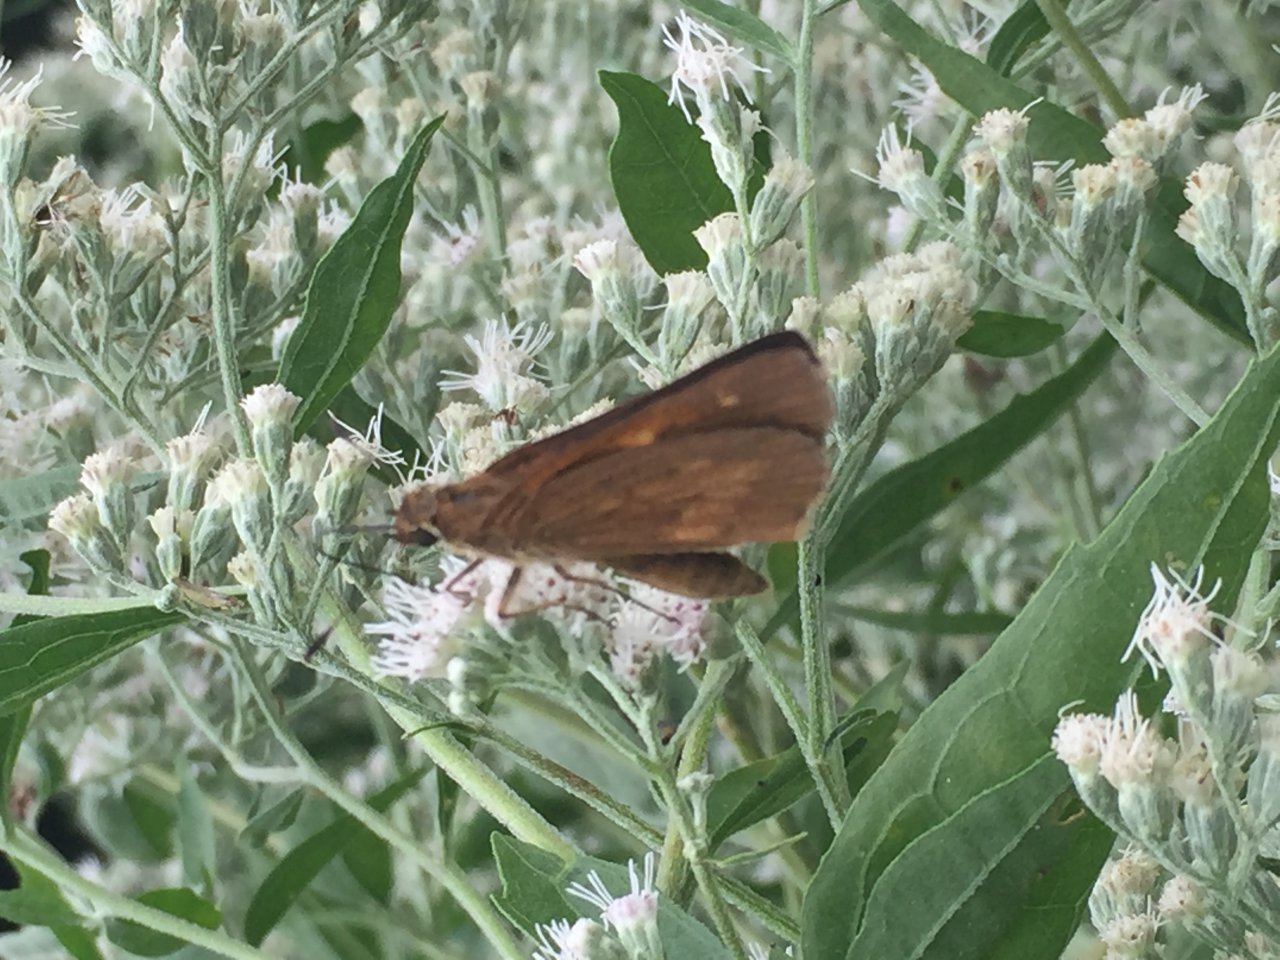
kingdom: Animalia
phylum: Arthropoda
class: Insecta
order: Lepidoptera
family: Hesperiidae
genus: Poanes
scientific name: Poanes viator
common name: Broad-winged Skipper
